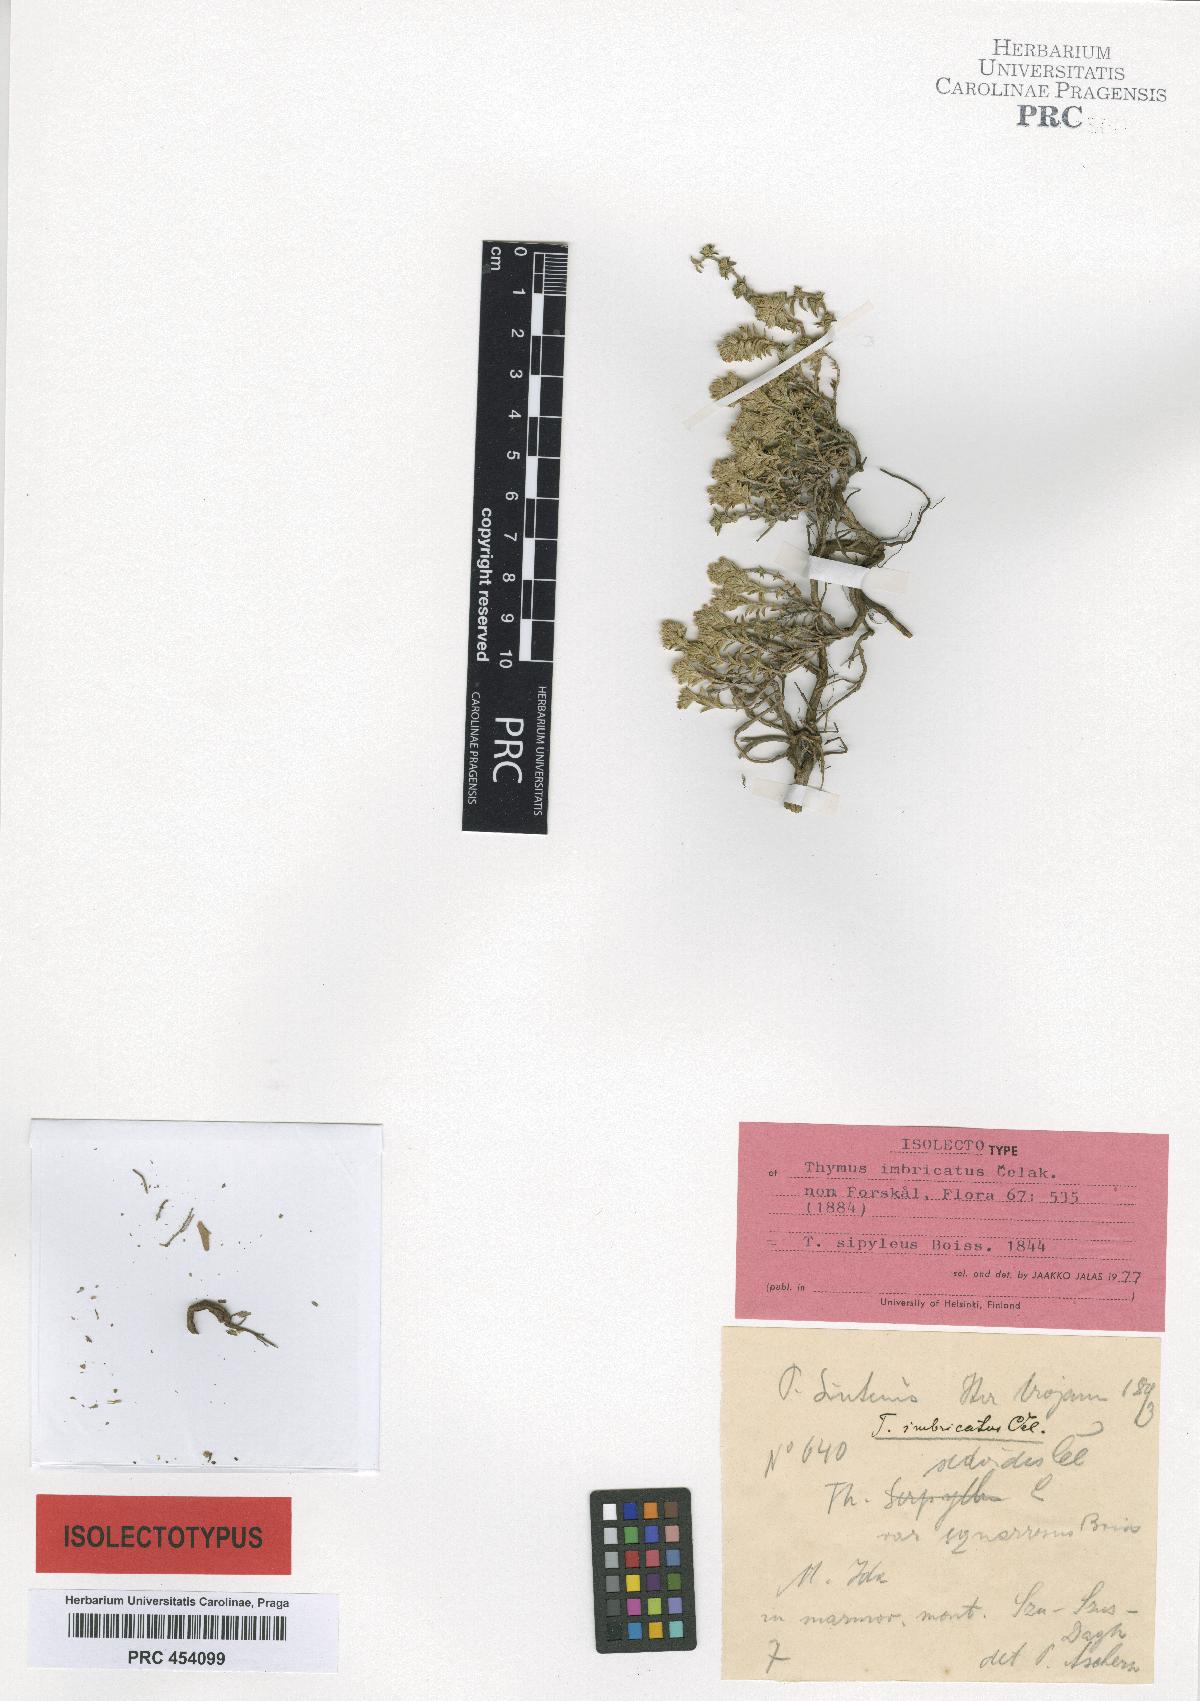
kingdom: Plantae
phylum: Tracheophyta
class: Magnoliopsida
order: Lamiales
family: Lamiaceae
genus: Thymus
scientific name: Thymus sipyleus
